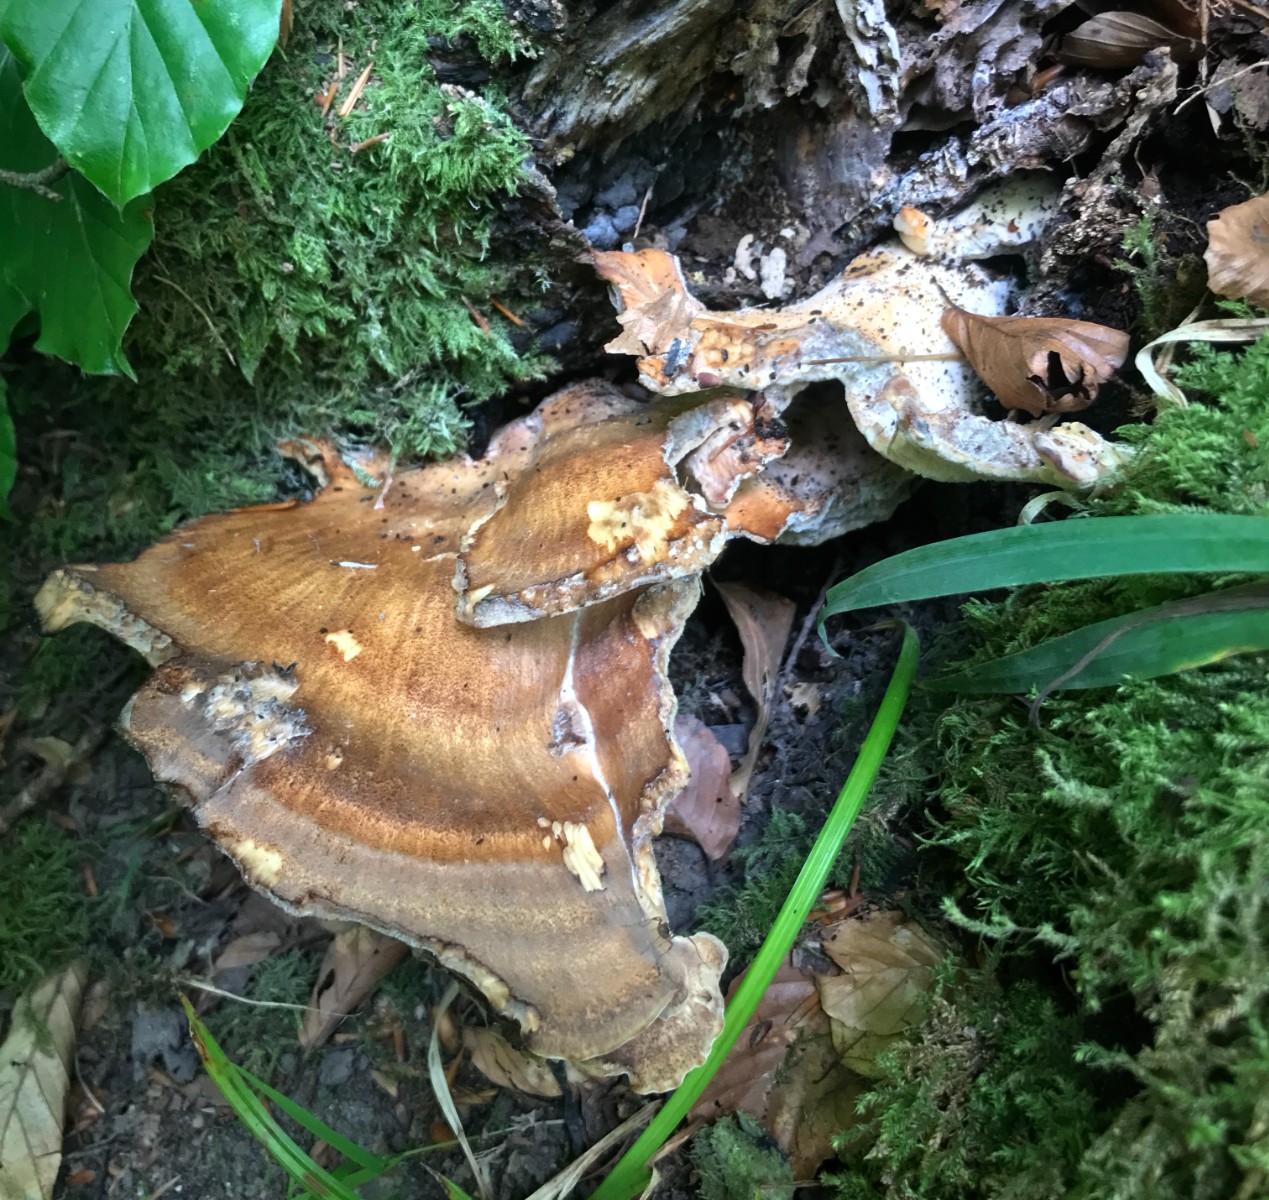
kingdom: Fungi
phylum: Basidiomycota
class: Agaricomycetes
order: Polyporales
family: Meripilaceae
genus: Meripilus
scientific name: Meripilus giganteus
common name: kæmpeporesvamp
